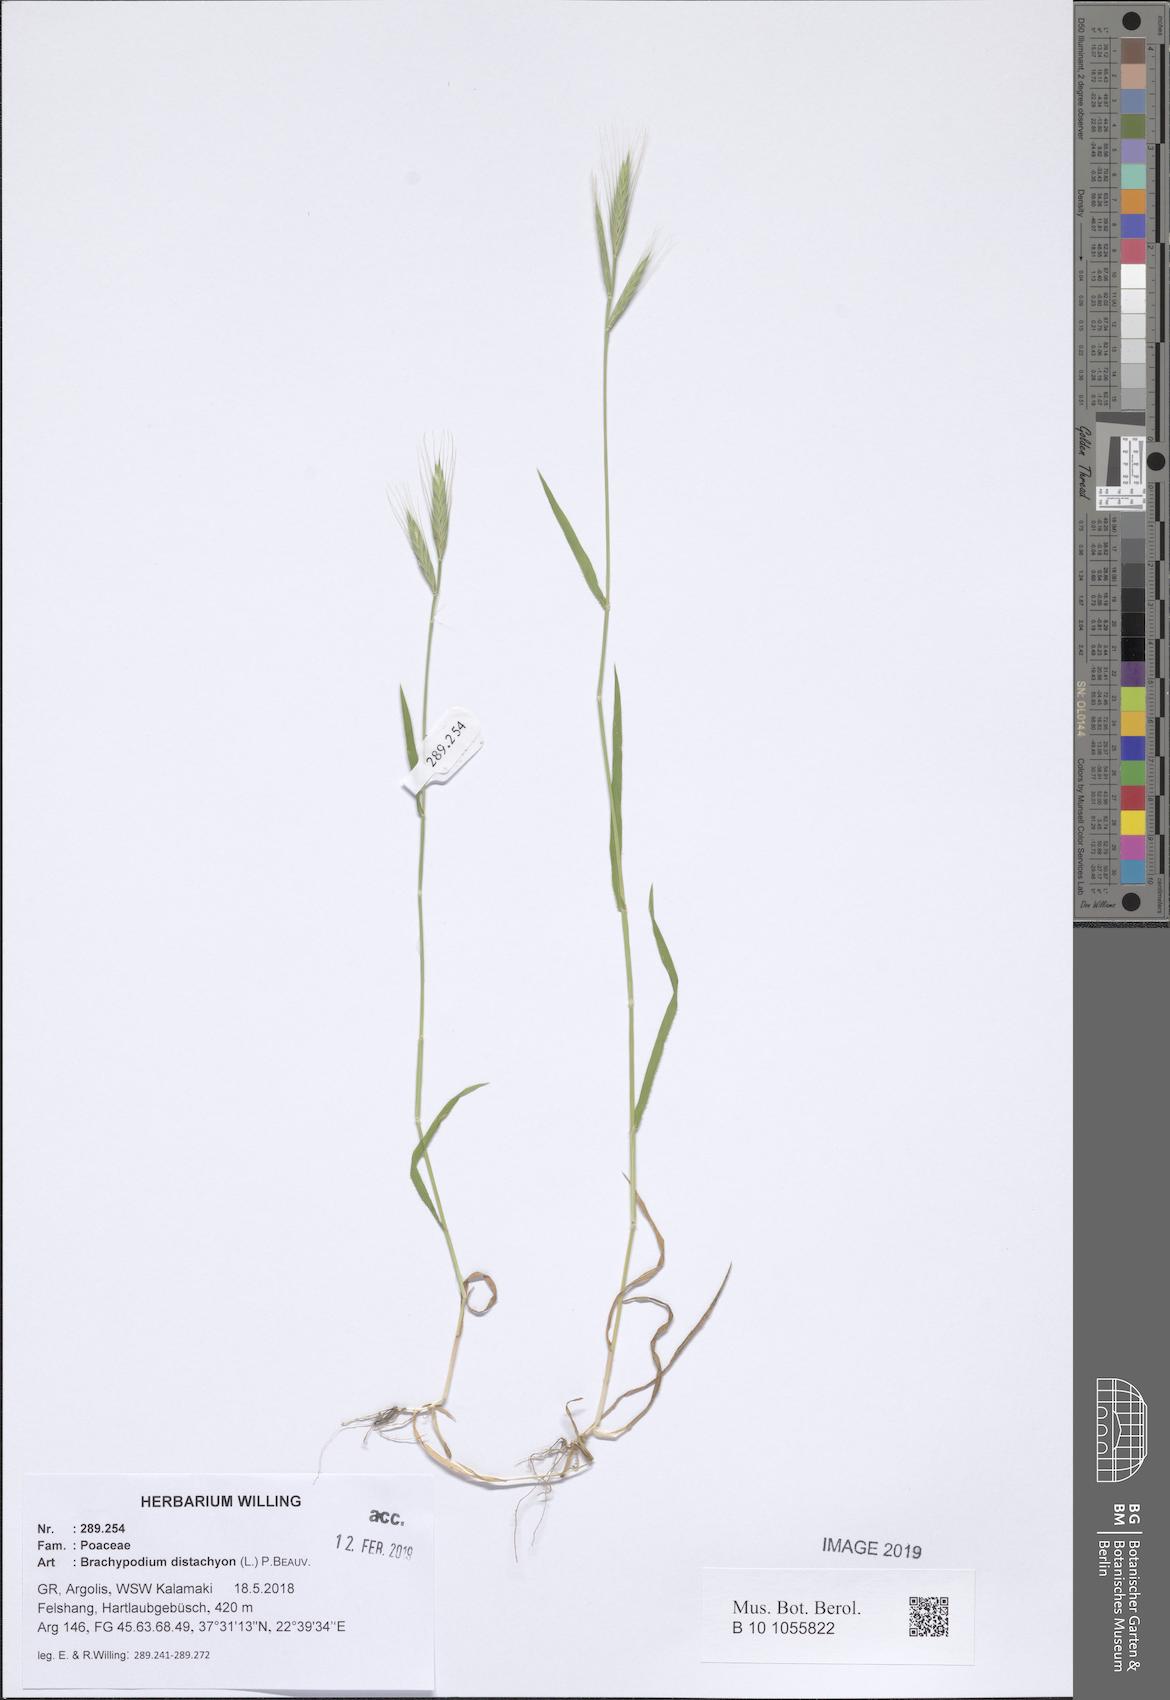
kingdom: Plantae
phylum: Tracheophyta
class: Liliopsida
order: Poales
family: Poaceae
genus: Brachypodium
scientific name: Brachypodium distachyon
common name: Stiff brome
